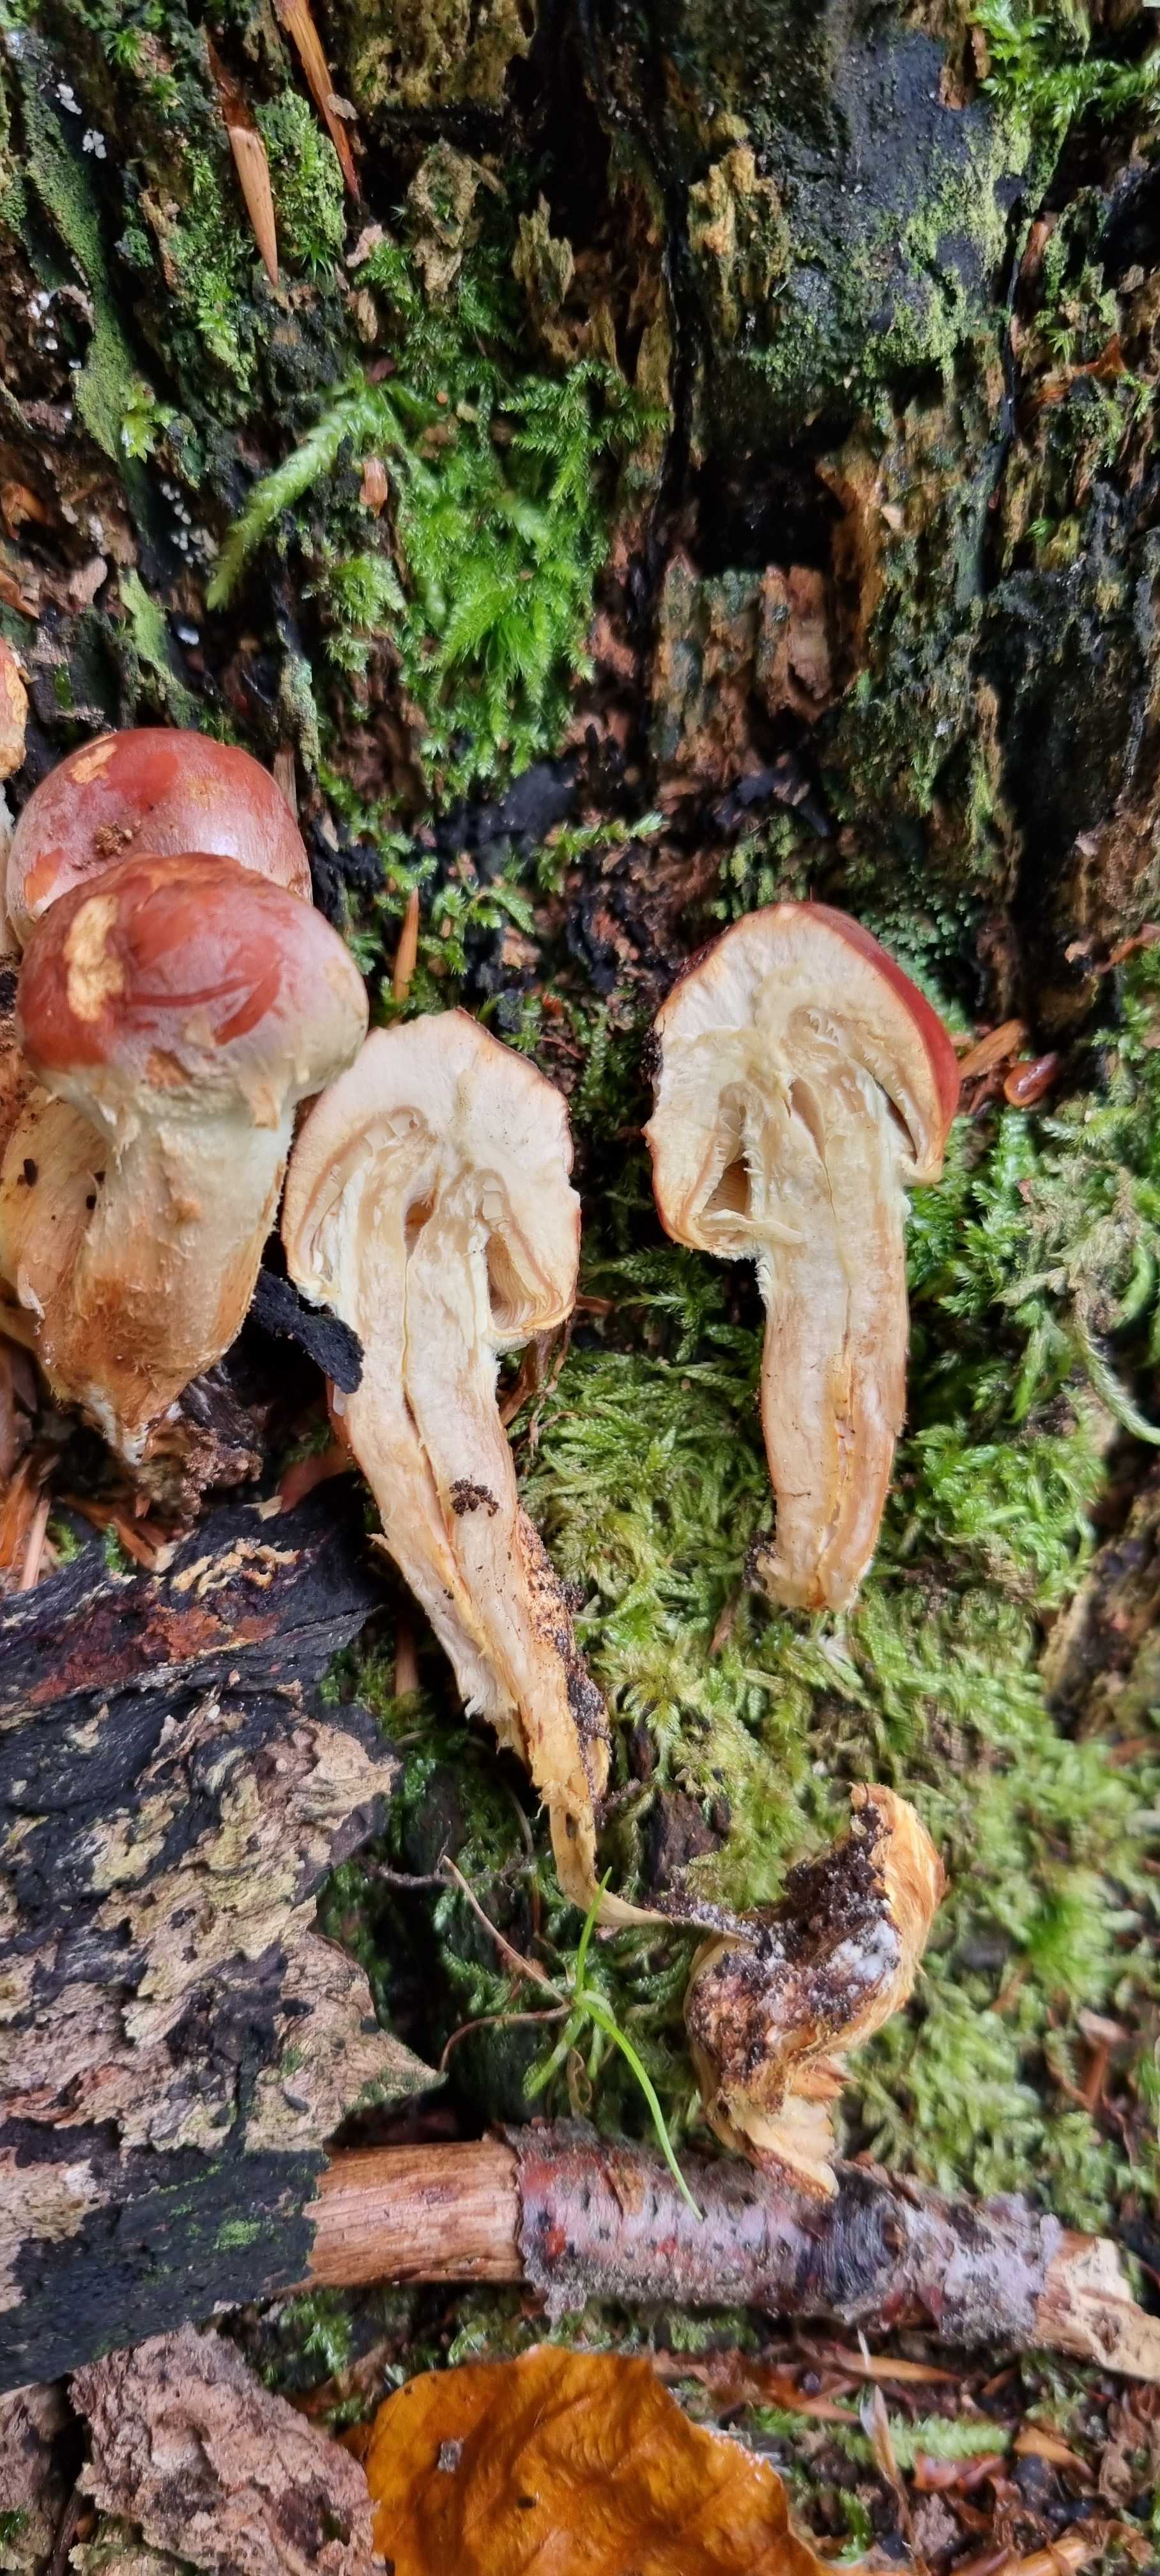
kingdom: Fungi
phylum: Basidiomycota
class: Agaricomycetes
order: Agaricales
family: Strophariaceae
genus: Hypholoma
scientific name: Hypholoma lateritium
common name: teglrød svovlhat
